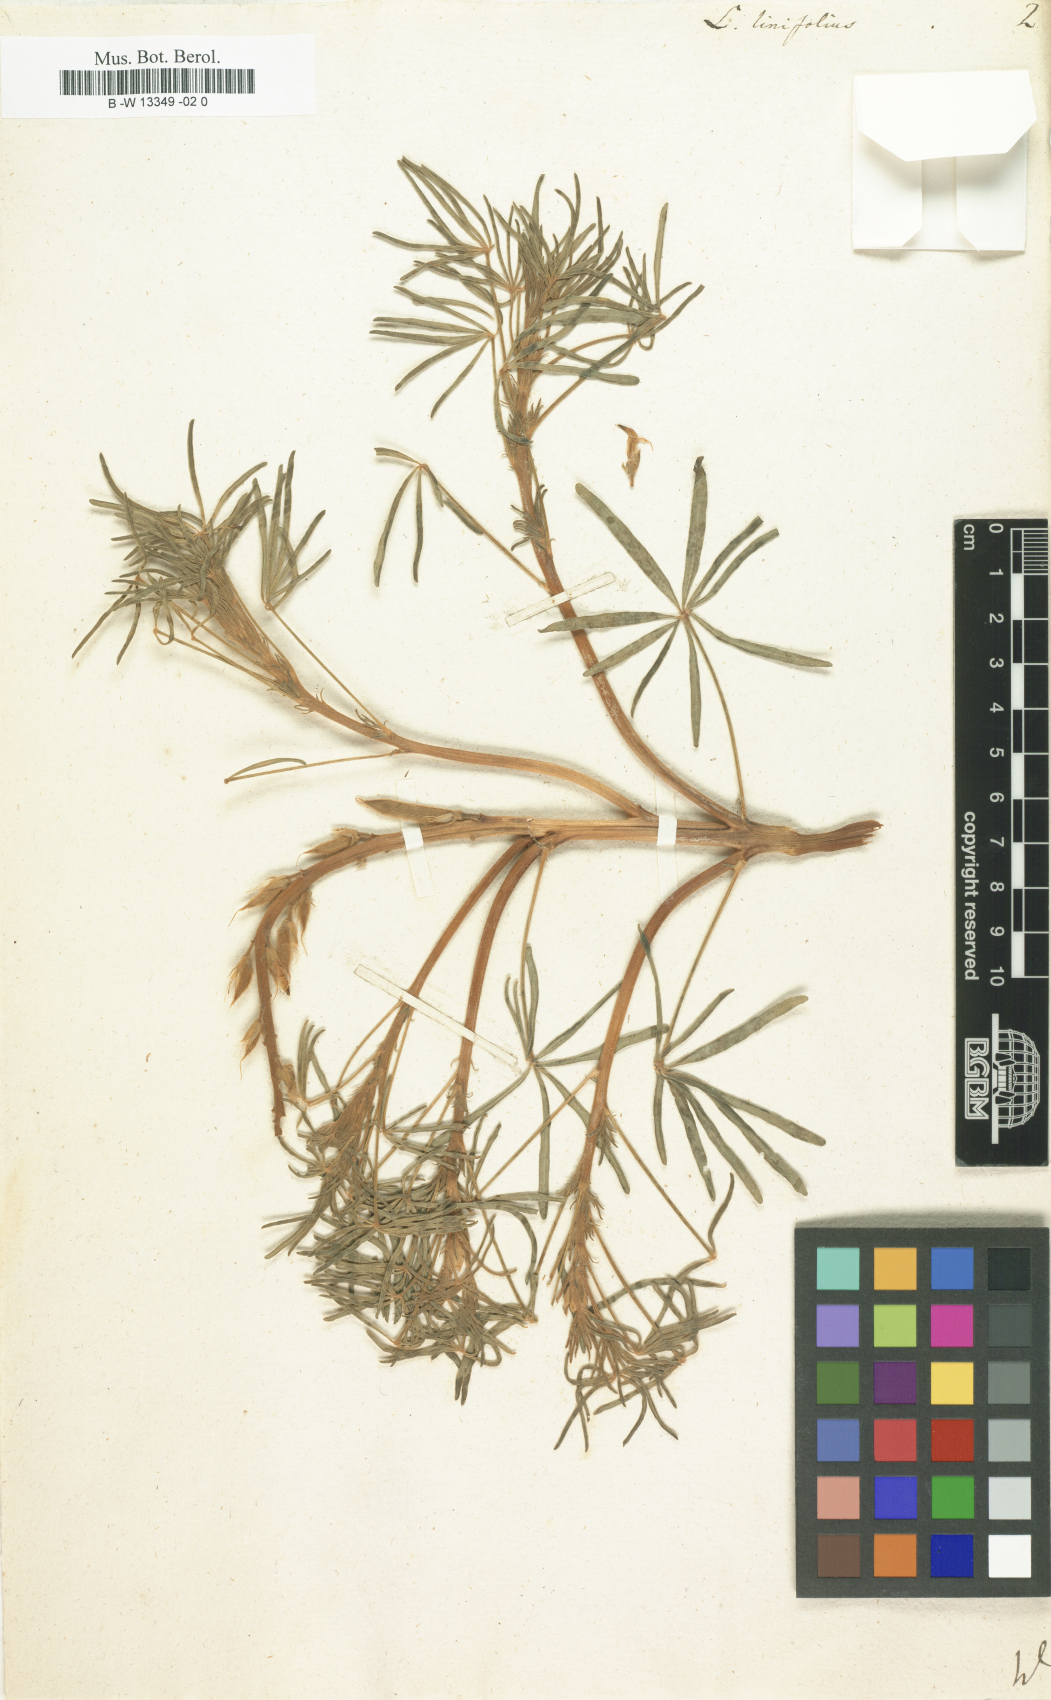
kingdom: Plantae
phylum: Tracheophyta
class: Magnoliopsida
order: Fabales
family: Fabaceae
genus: Lupinus
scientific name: Lupinus angustifolius
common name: Narrow-leaved lupin
